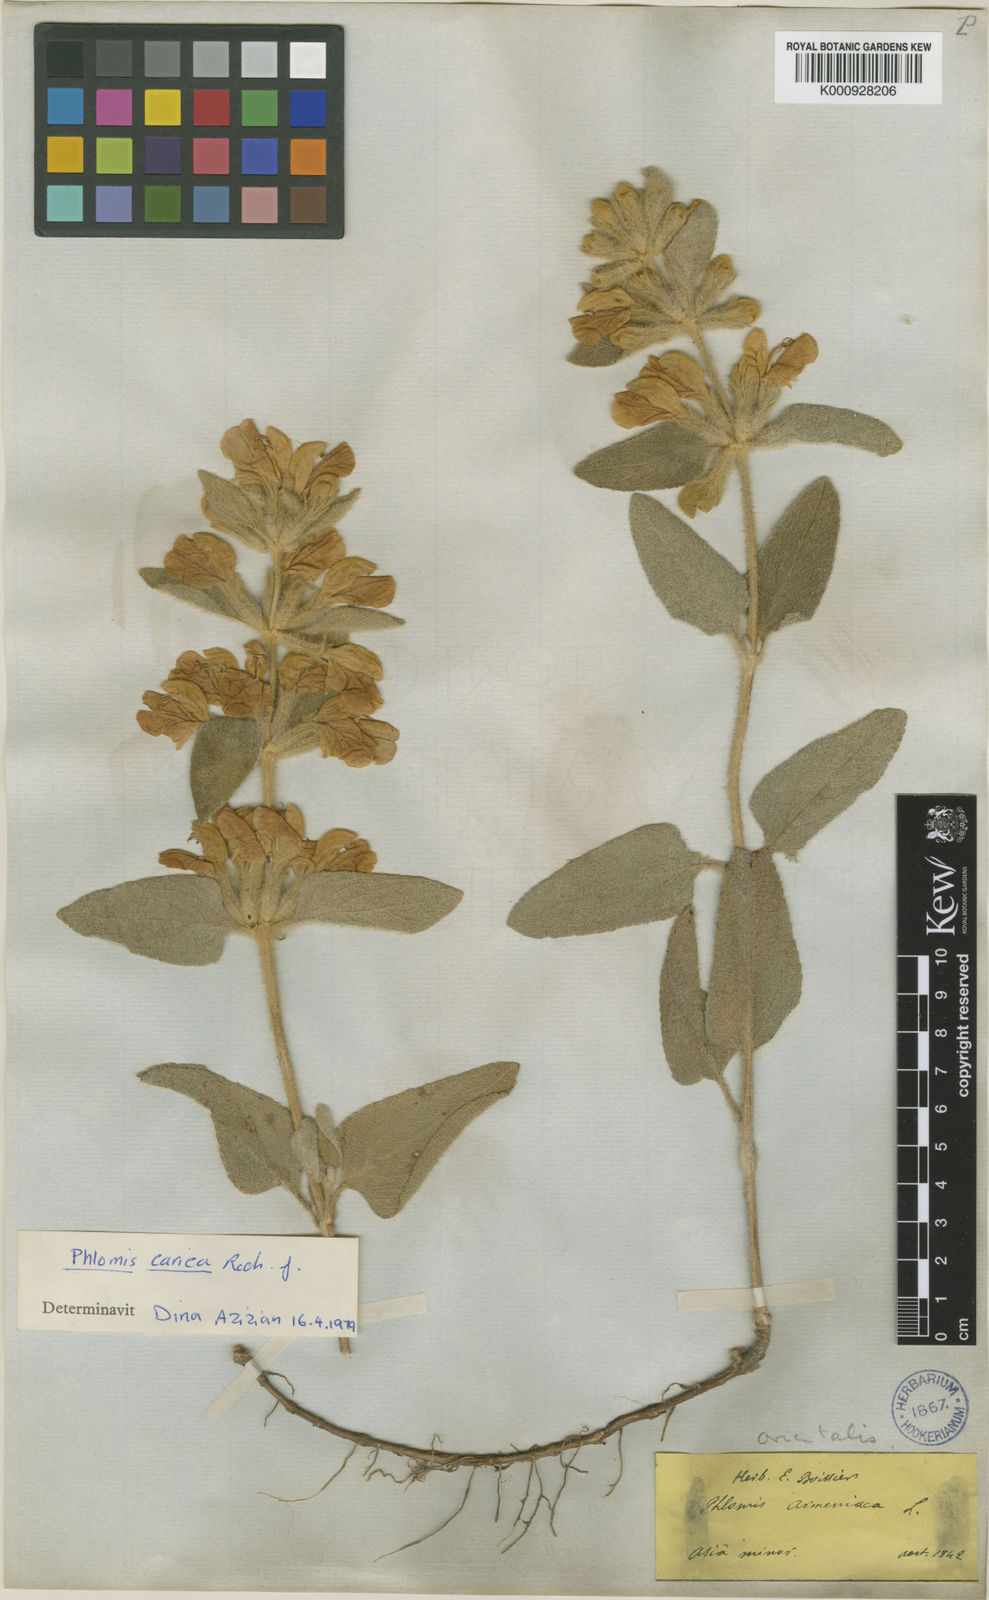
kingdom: Plantae
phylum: Tracheophyta
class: Magnoliopsida
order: Lamiales
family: Lamiaceae
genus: Phlomis
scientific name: Phlomis carica
